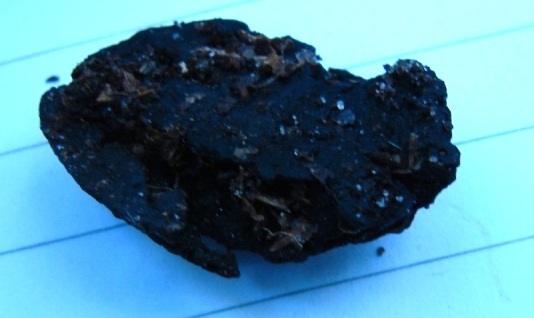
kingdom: Fungi
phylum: Ascomycota
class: Leotiomycetes
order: Helotiales
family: Sclerotiniaceae
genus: Ciboria
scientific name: Ciboria batschiana
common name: agern-knoldskive
